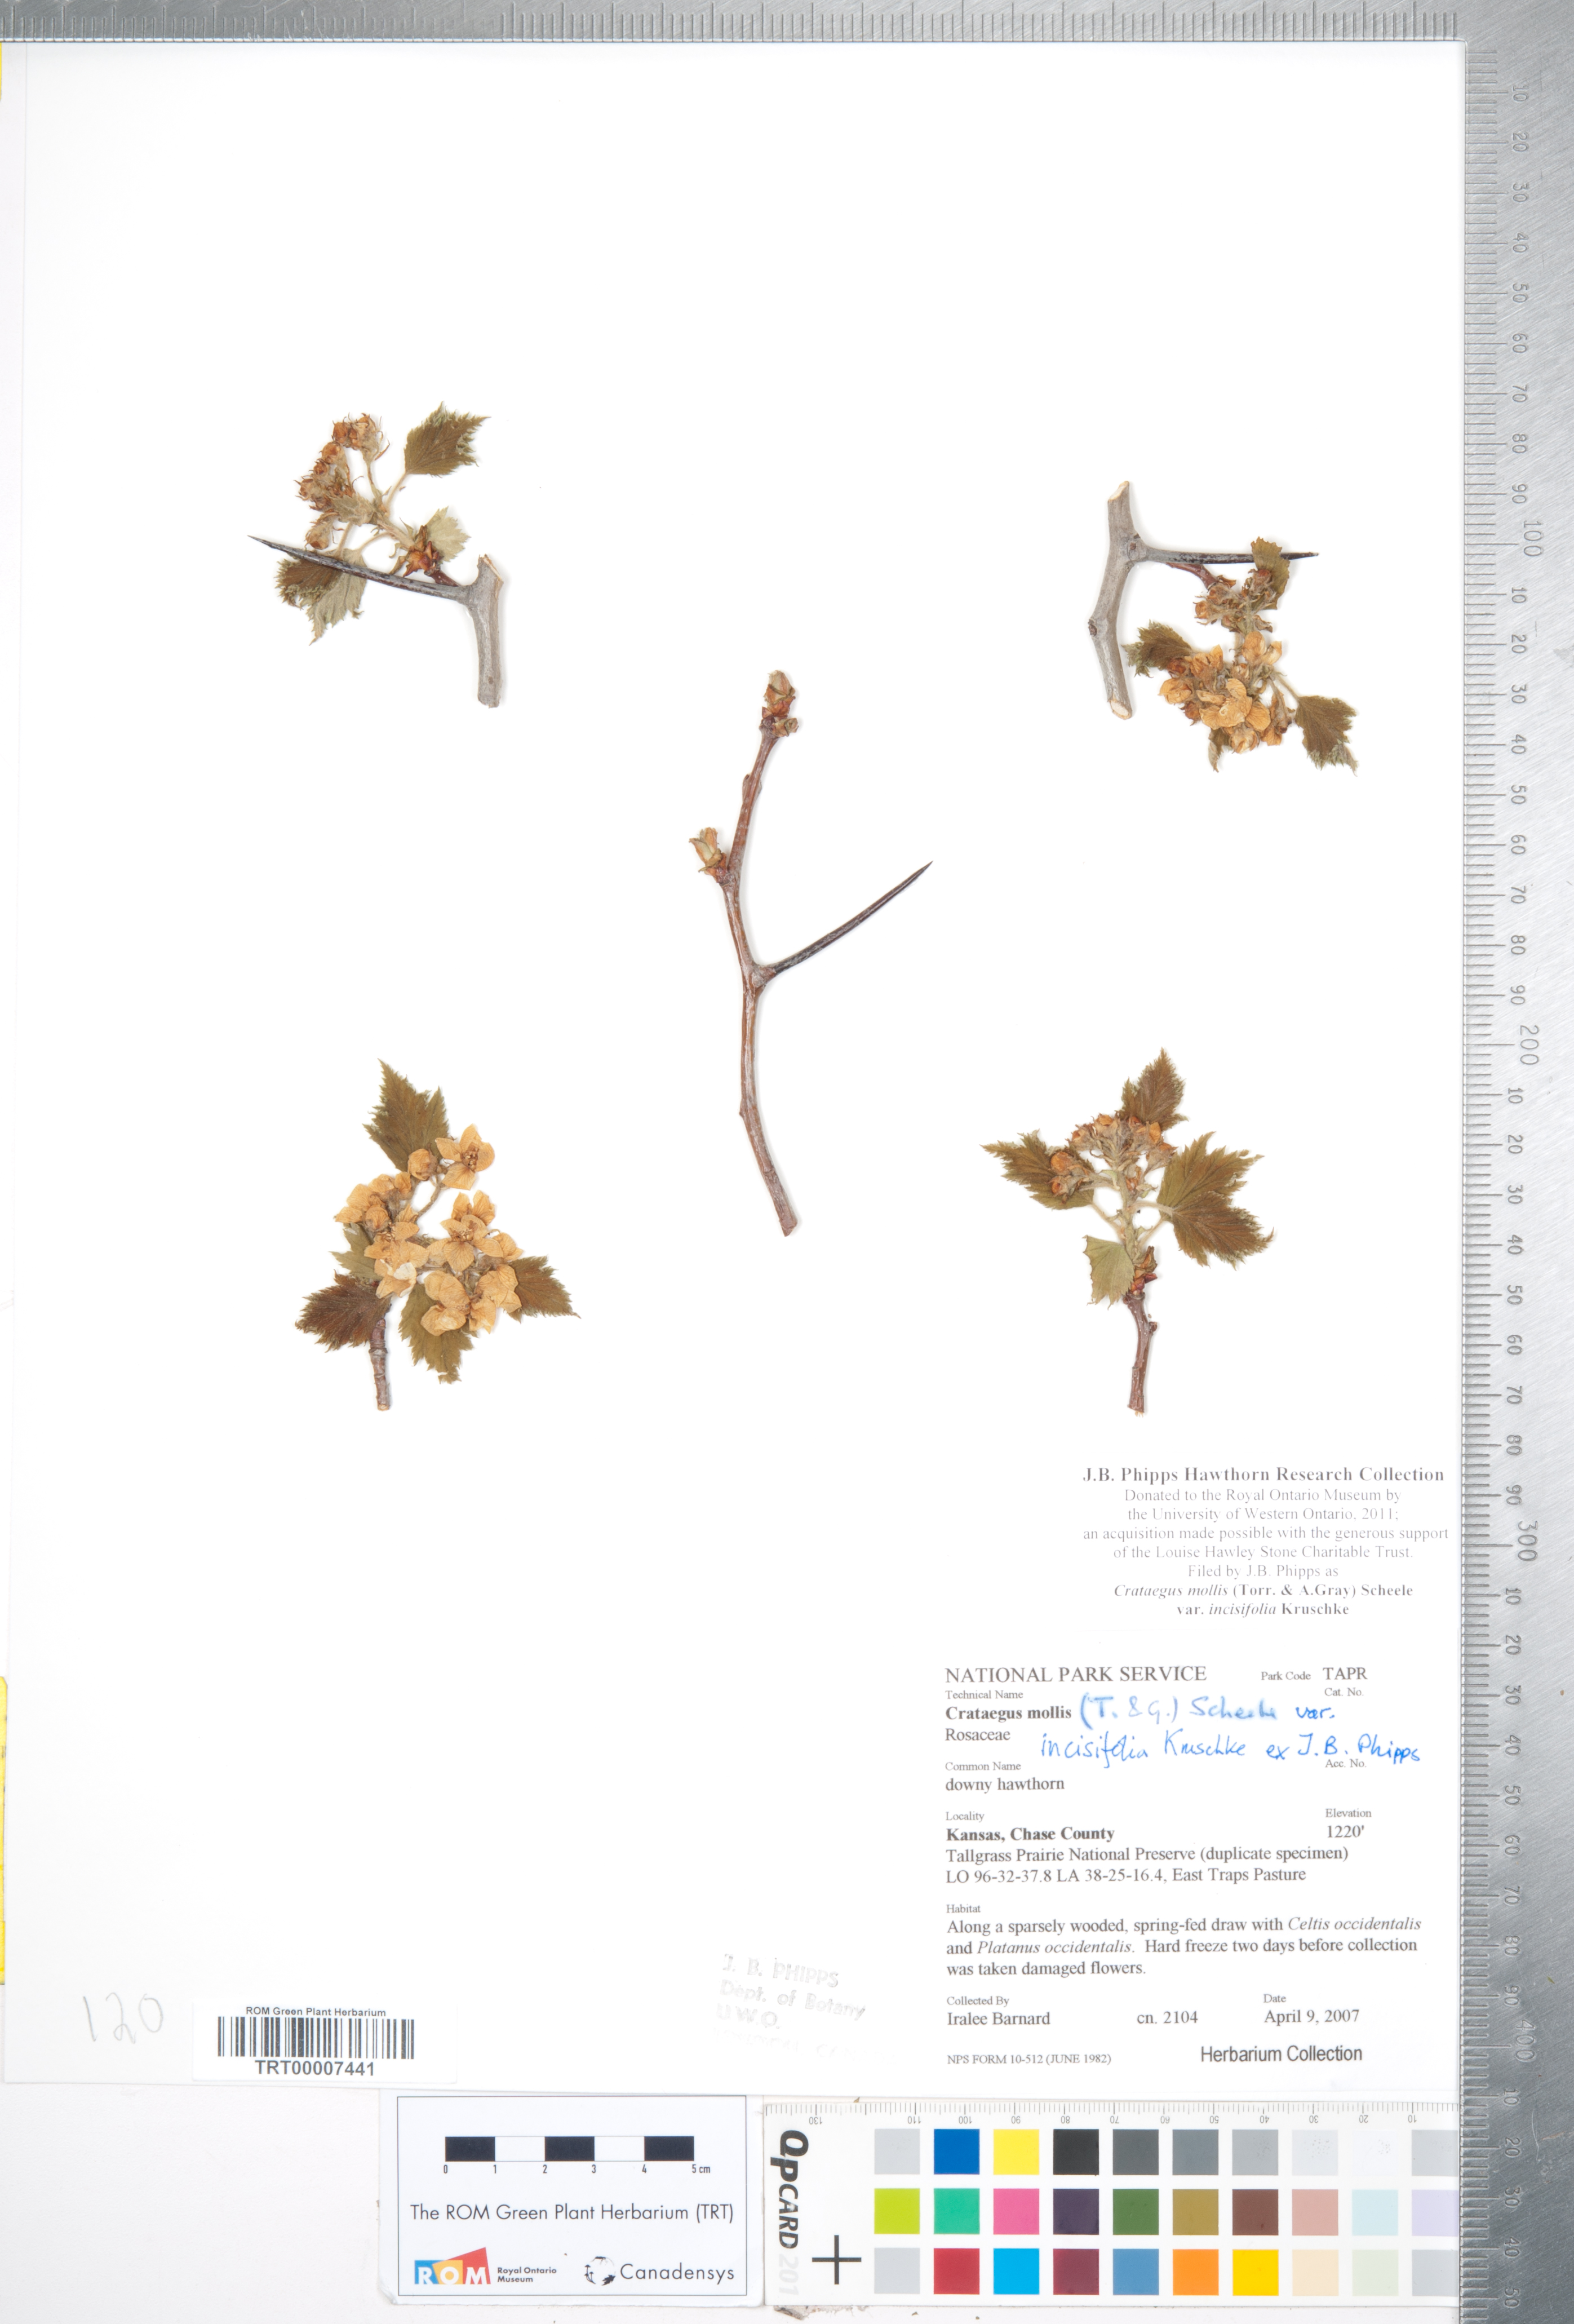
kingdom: Plantae
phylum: Tracheophyta
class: Magnoliopsida
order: Rosales
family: Rosaceae
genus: Crataegus
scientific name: Crataegus mollis
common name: Downy hawthorn
